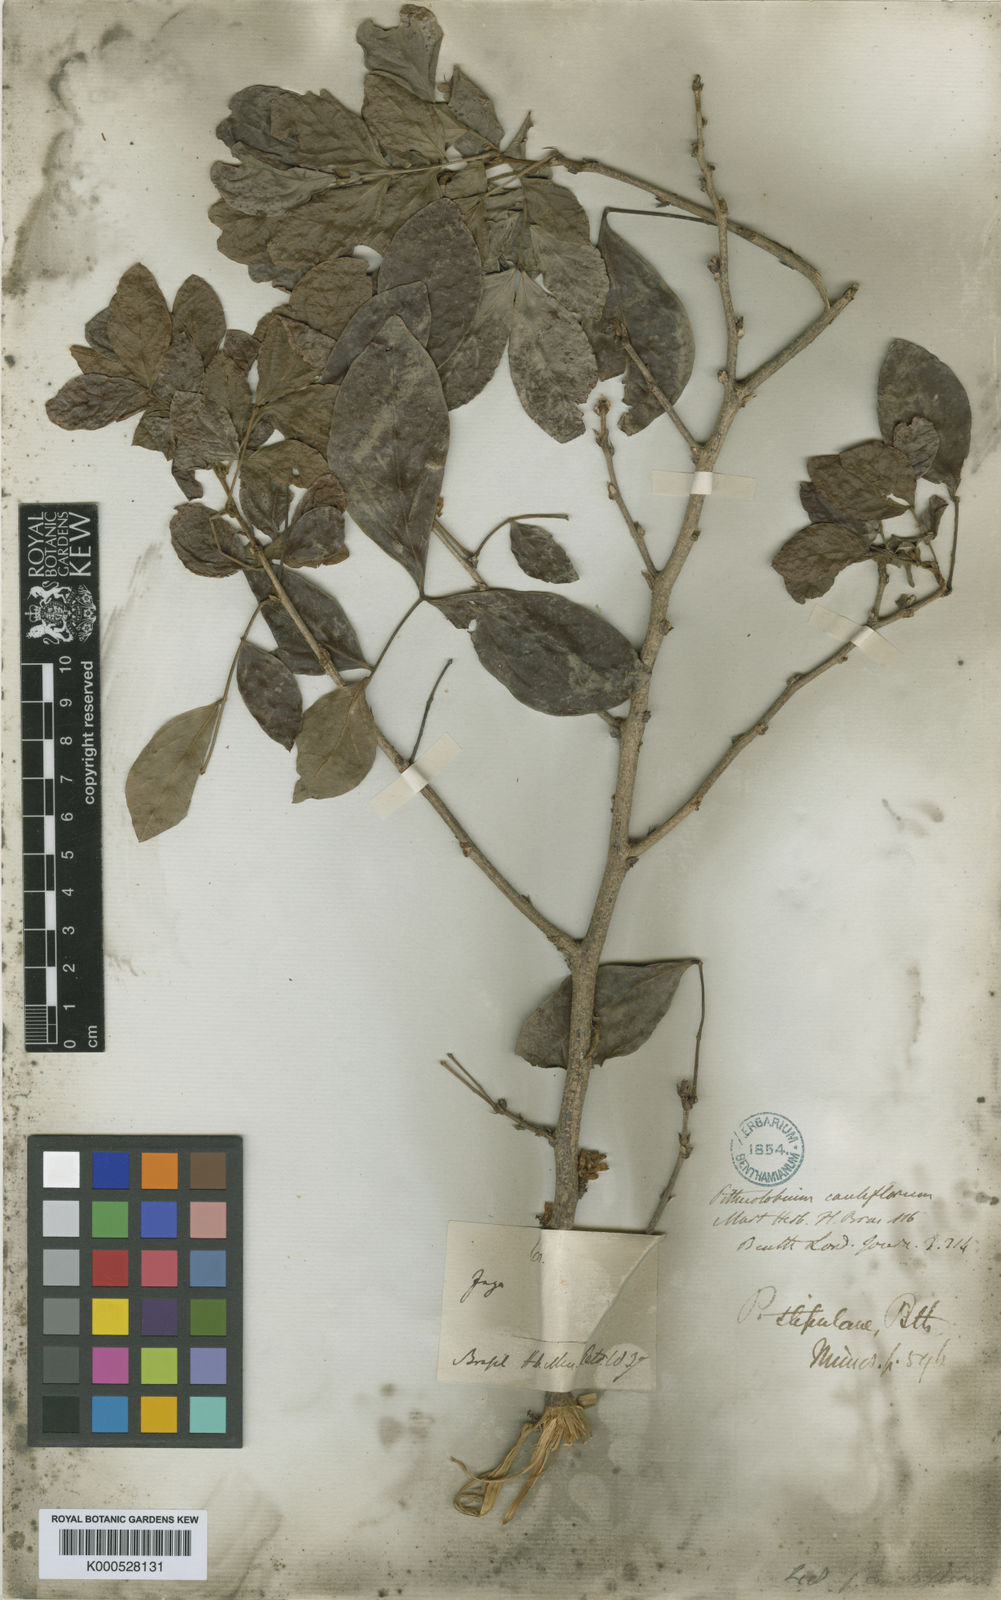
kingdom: Plantae
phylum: Tracheophyta
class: Magnoliopsida
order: Fabales
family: Fabaceae
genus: Zygia
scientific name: Zygia cauliflora
